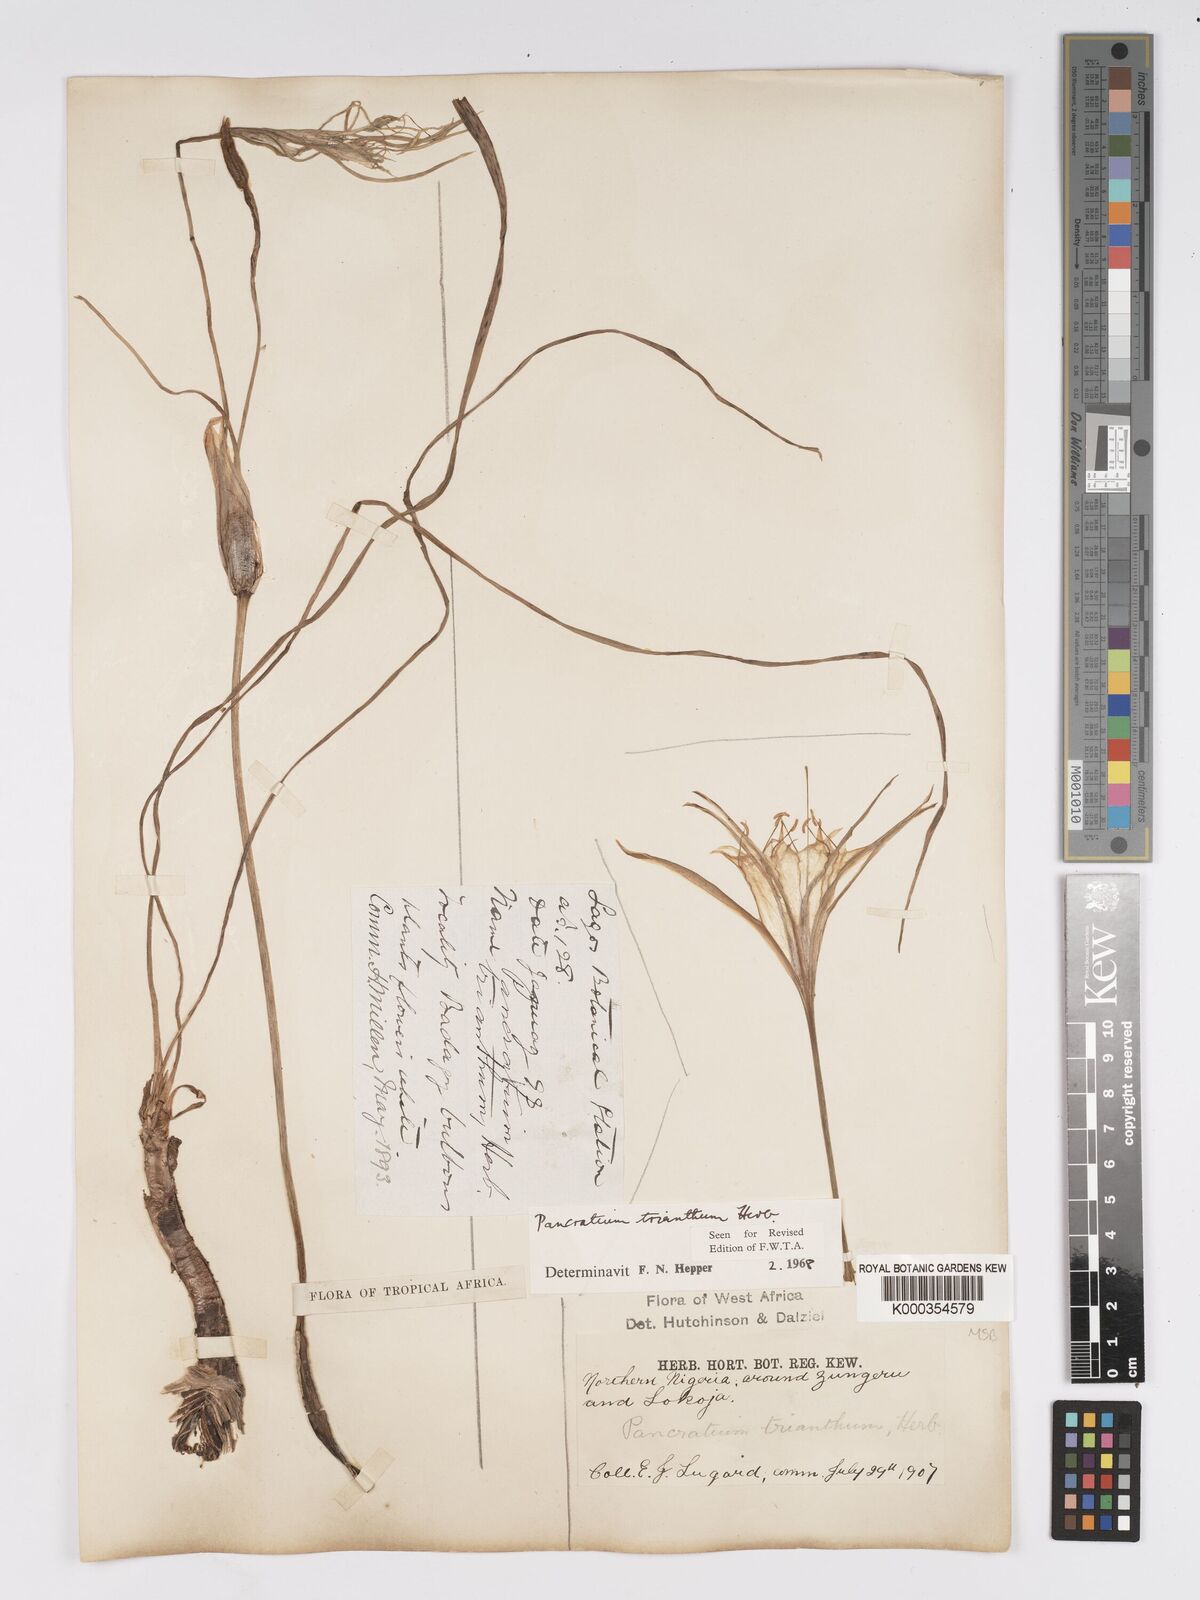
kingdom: Plantae
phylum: Tracheophyta
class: Liliopsida
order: Asparagales
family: Amaryllidaceae
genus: Pancratium
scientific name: Pancratium trianthum
